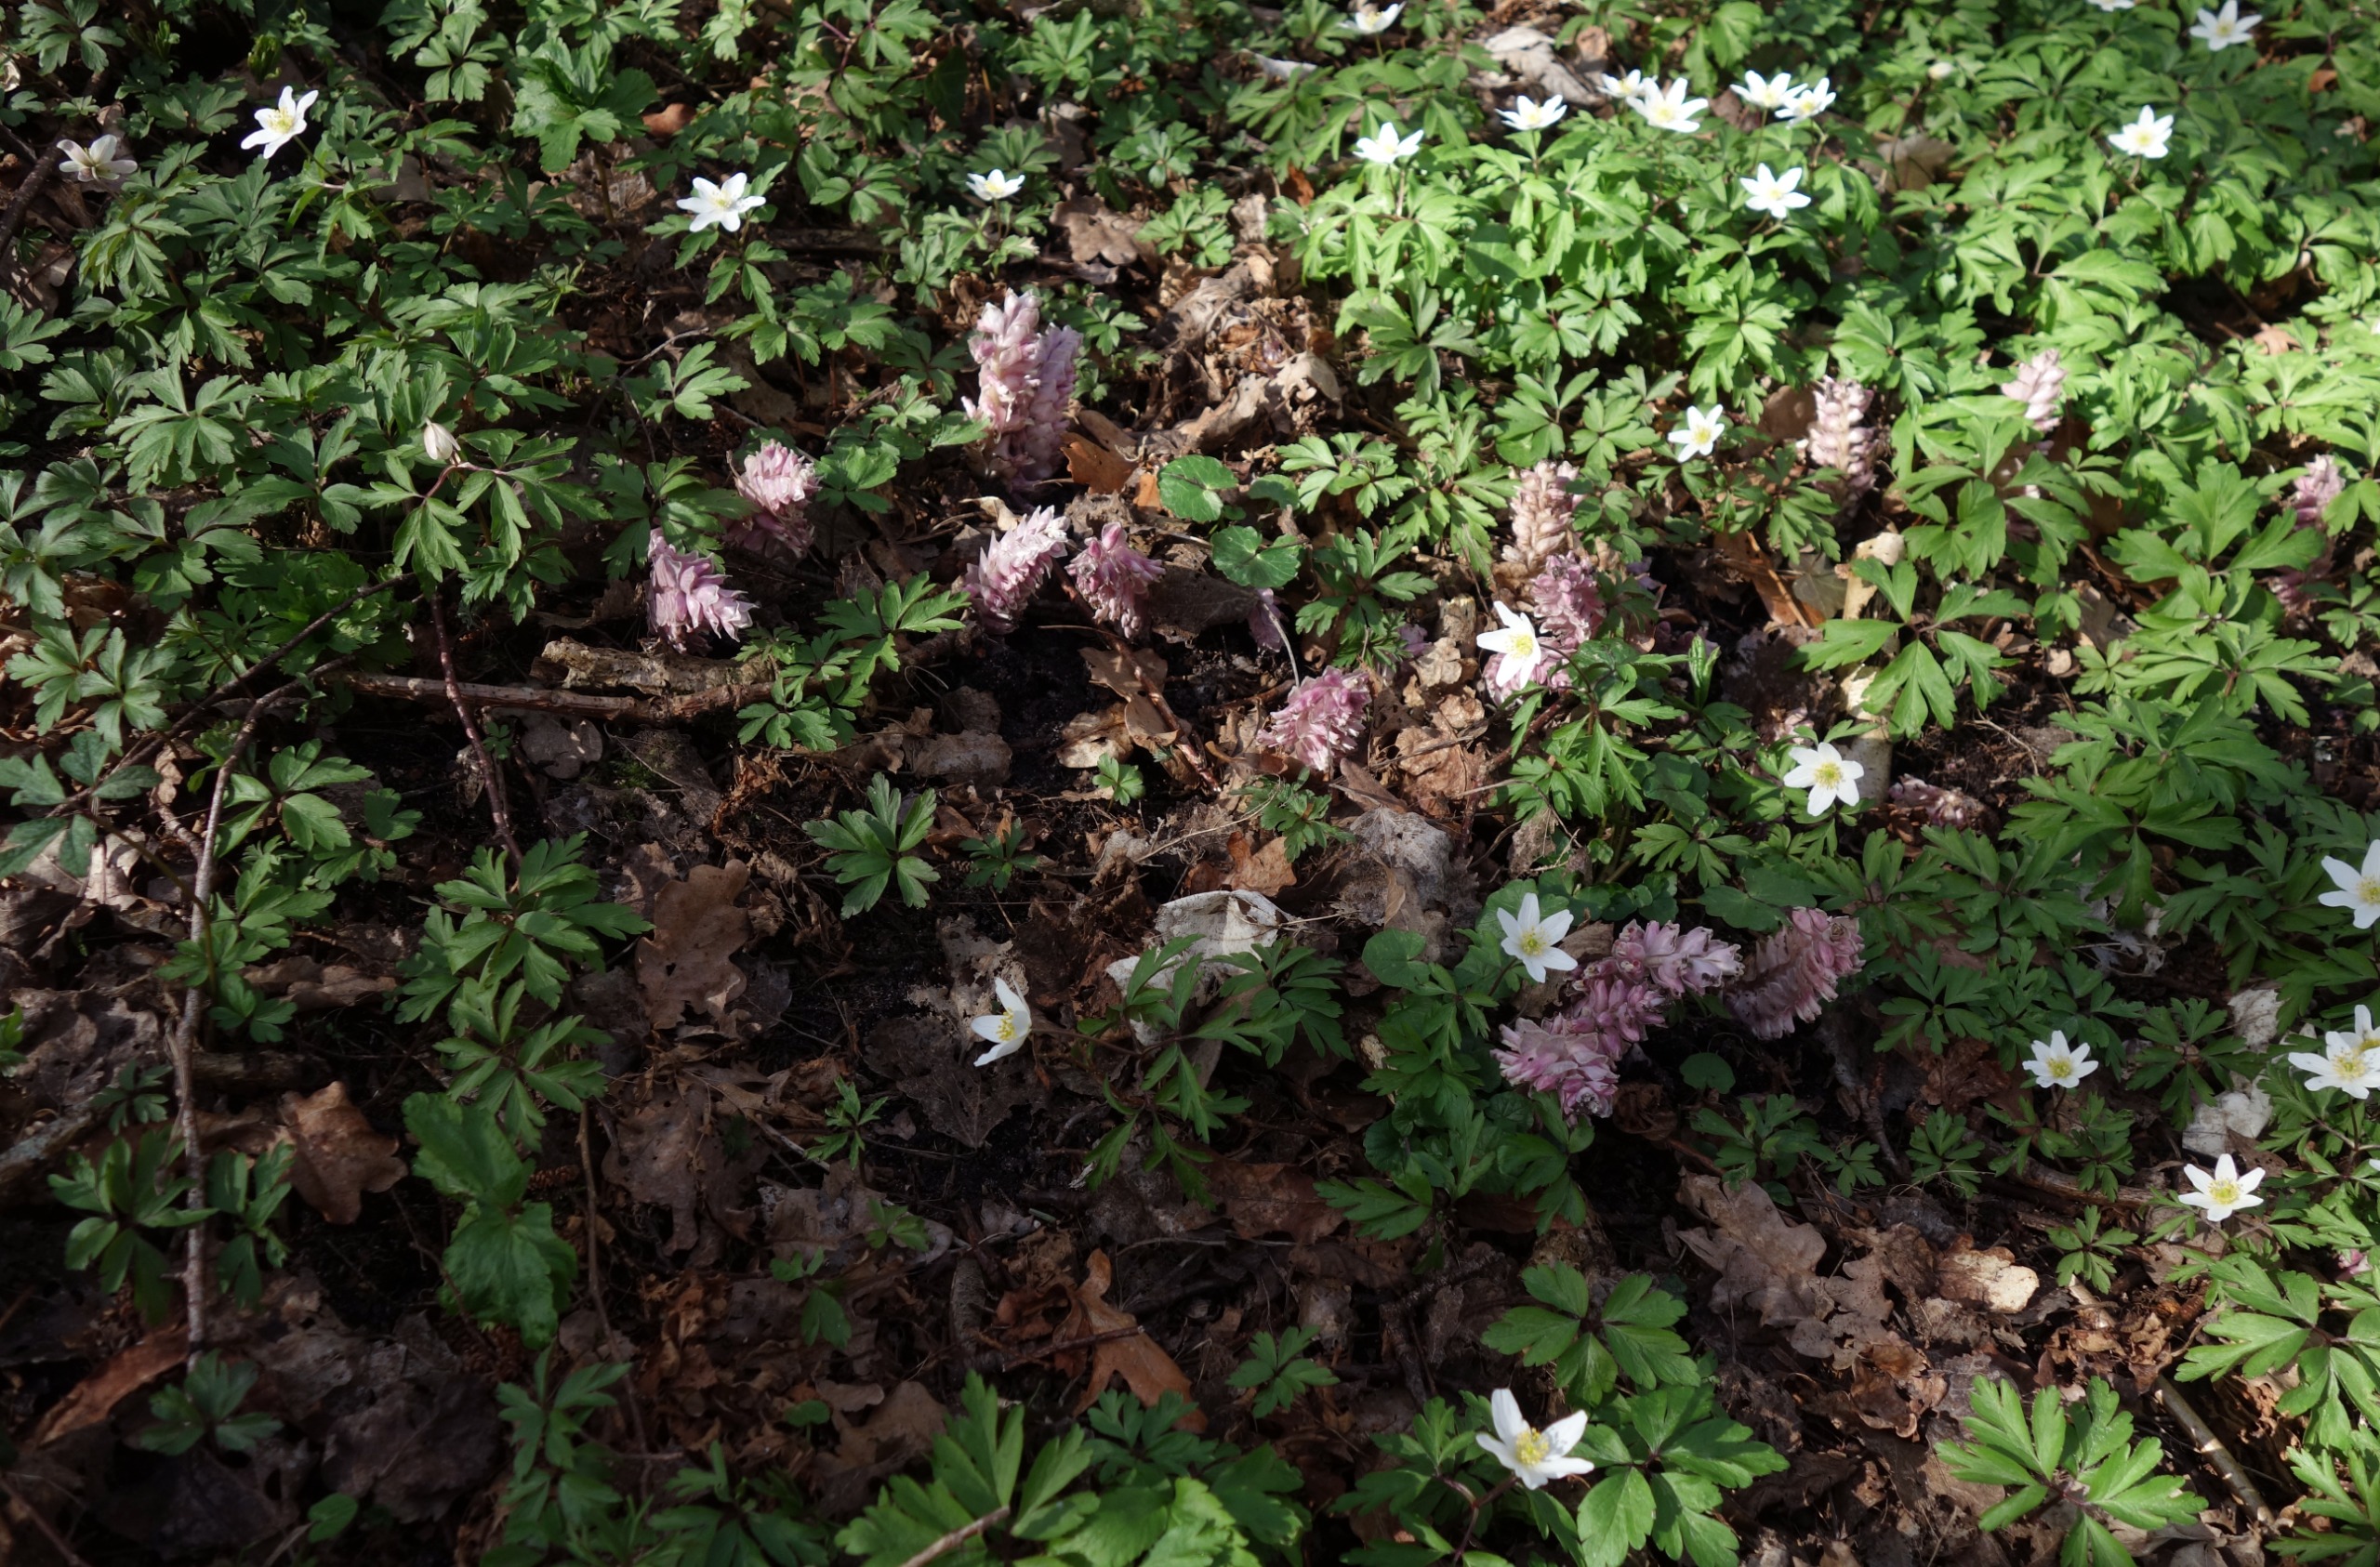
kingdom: Plantae
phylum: Tracheophyta
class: Magnoliopsida
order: Lamiales
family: Orobanchaceae
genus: Lathraea
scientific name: Lathraea squamaria
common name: Skælrod
